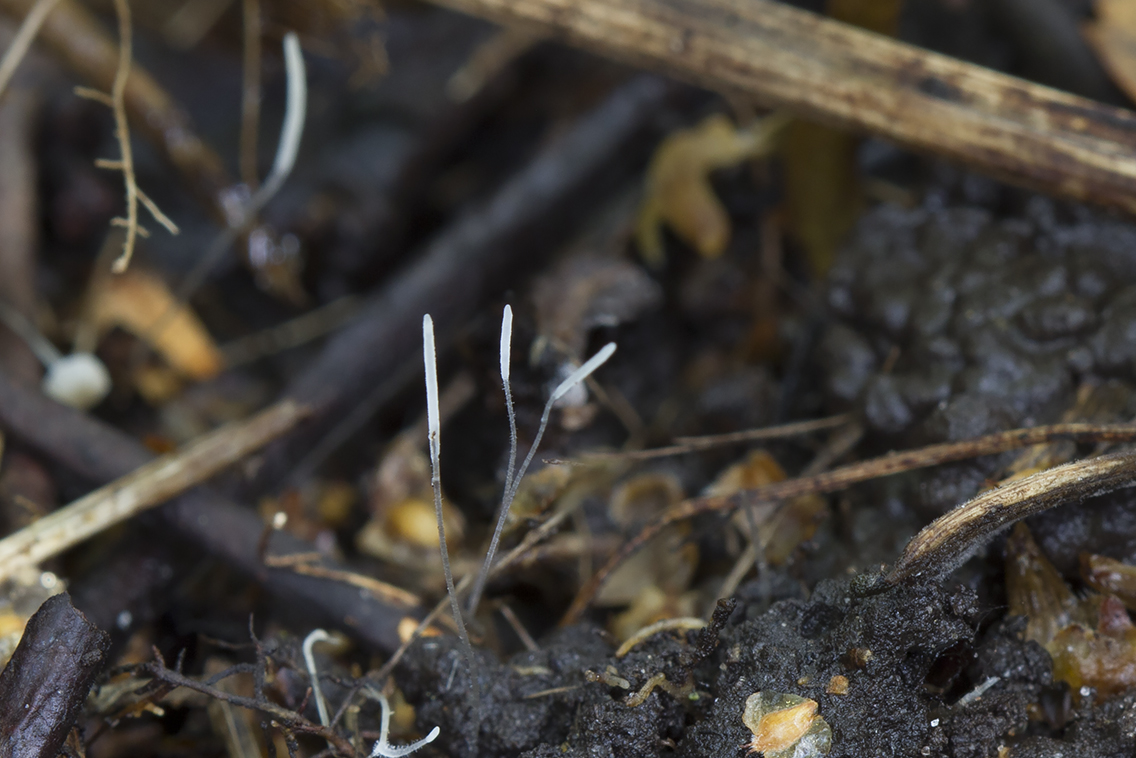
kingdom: Fungi
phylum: Basidiomycota
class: Agaricomycetes
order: Agaricales
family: Typhulaceae
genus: Typhula
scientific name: Typhula setipes
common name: liden trådkølle
